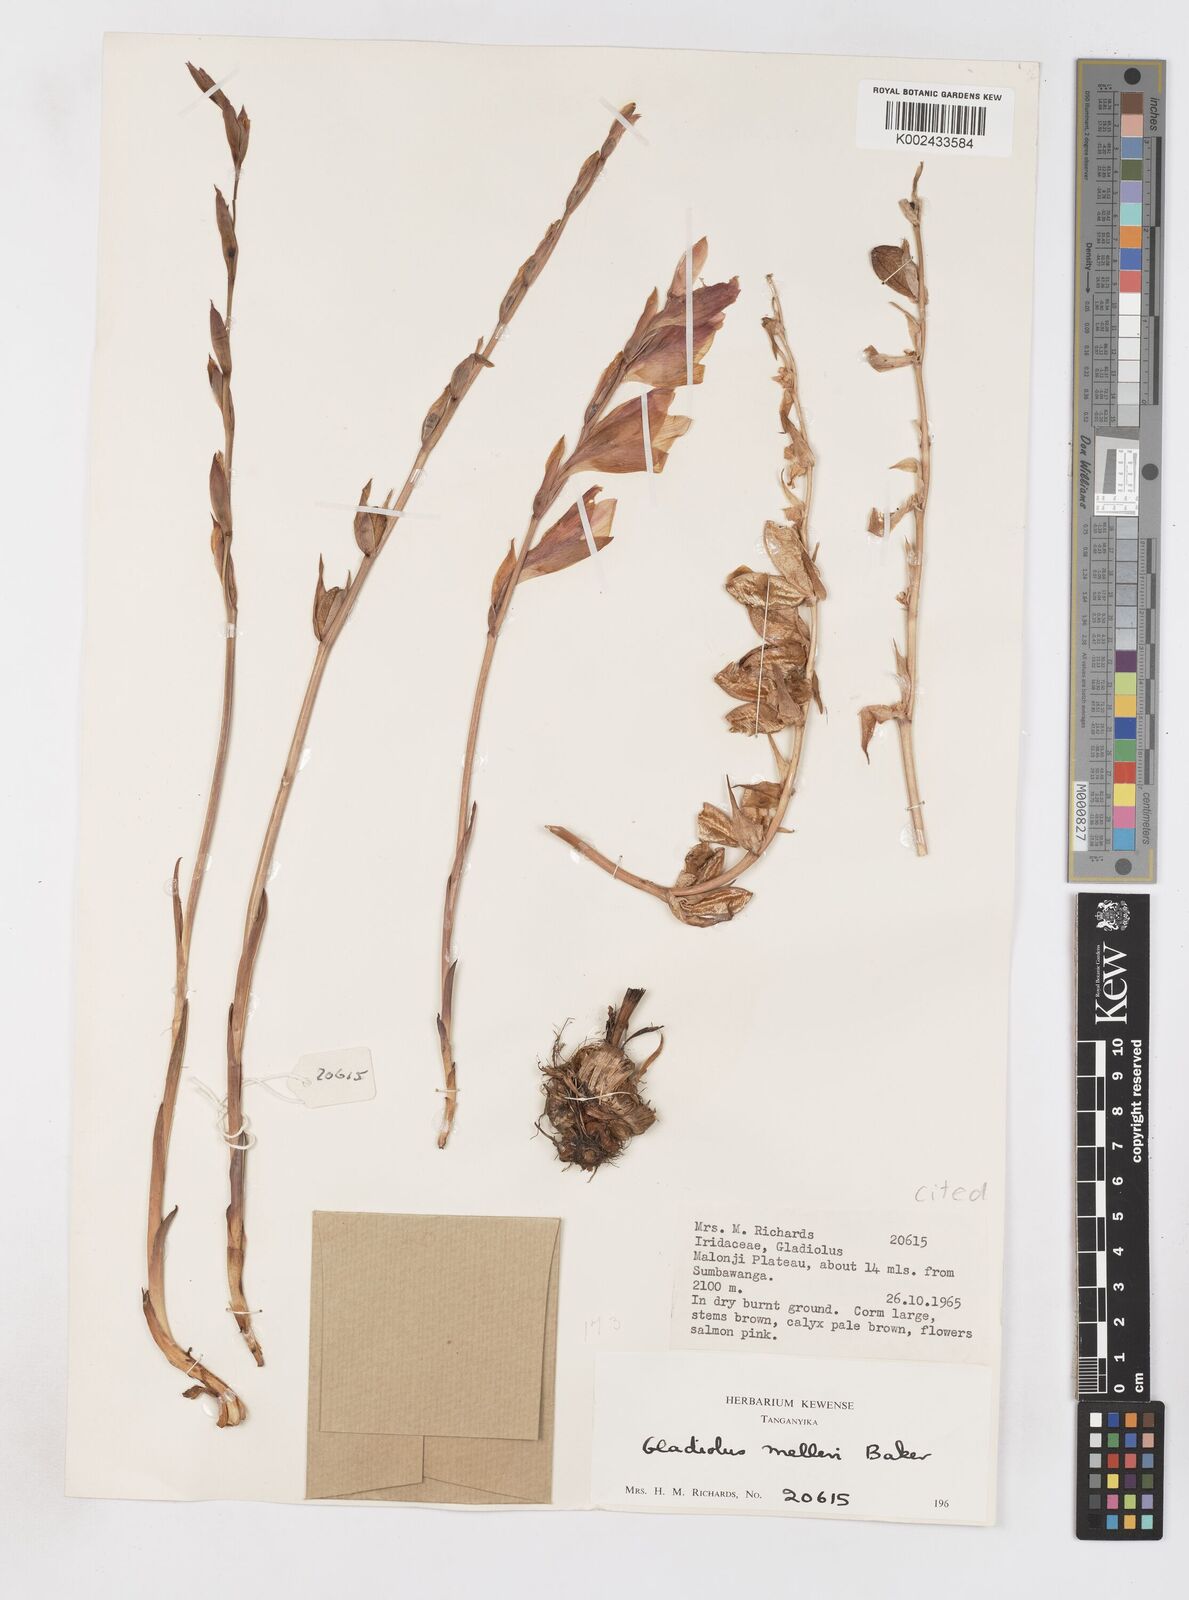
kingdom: Plantae
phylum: Tracheophyta
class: Liliopsida
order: Asparagales
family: Iridaceae
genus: Gladiolus
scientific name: Gladiolus melleri
